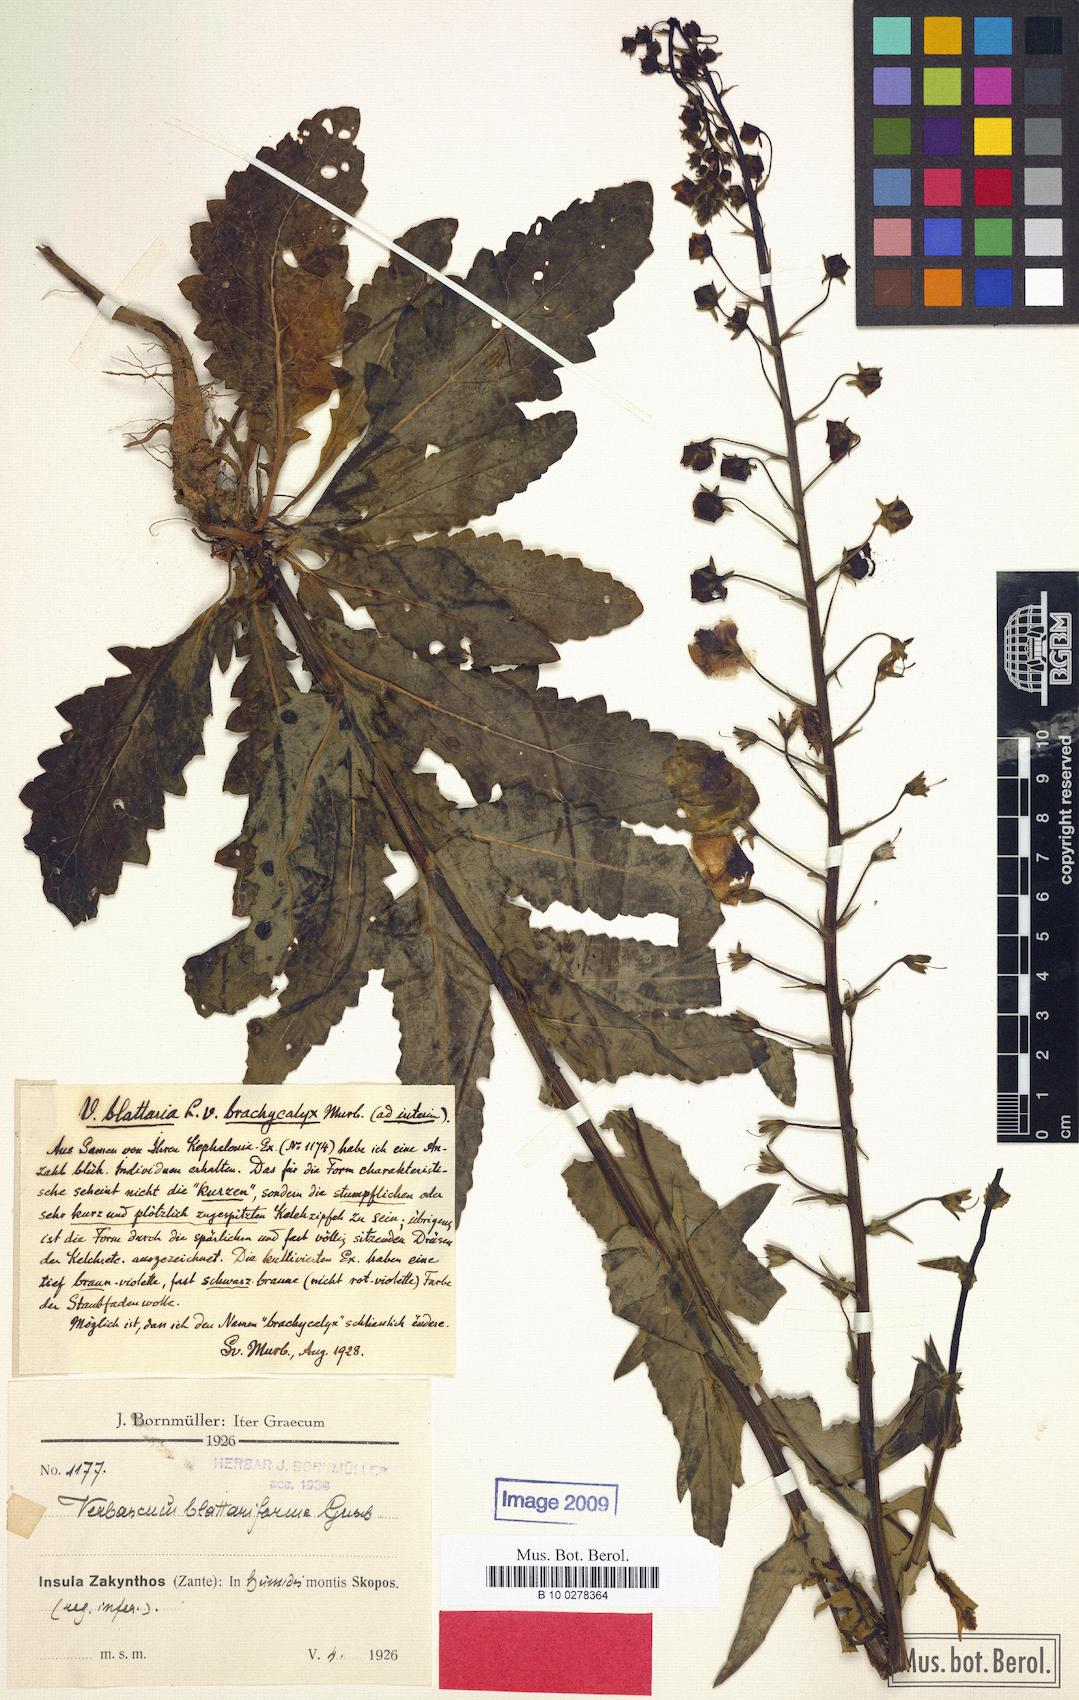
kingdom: Plantae
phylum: Tracheophyta
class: Magnoliopsida
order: Lamiales
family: Scrophulariaceae
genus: Verbascum
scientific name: Verbascum blattaria
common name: Moth mullein
